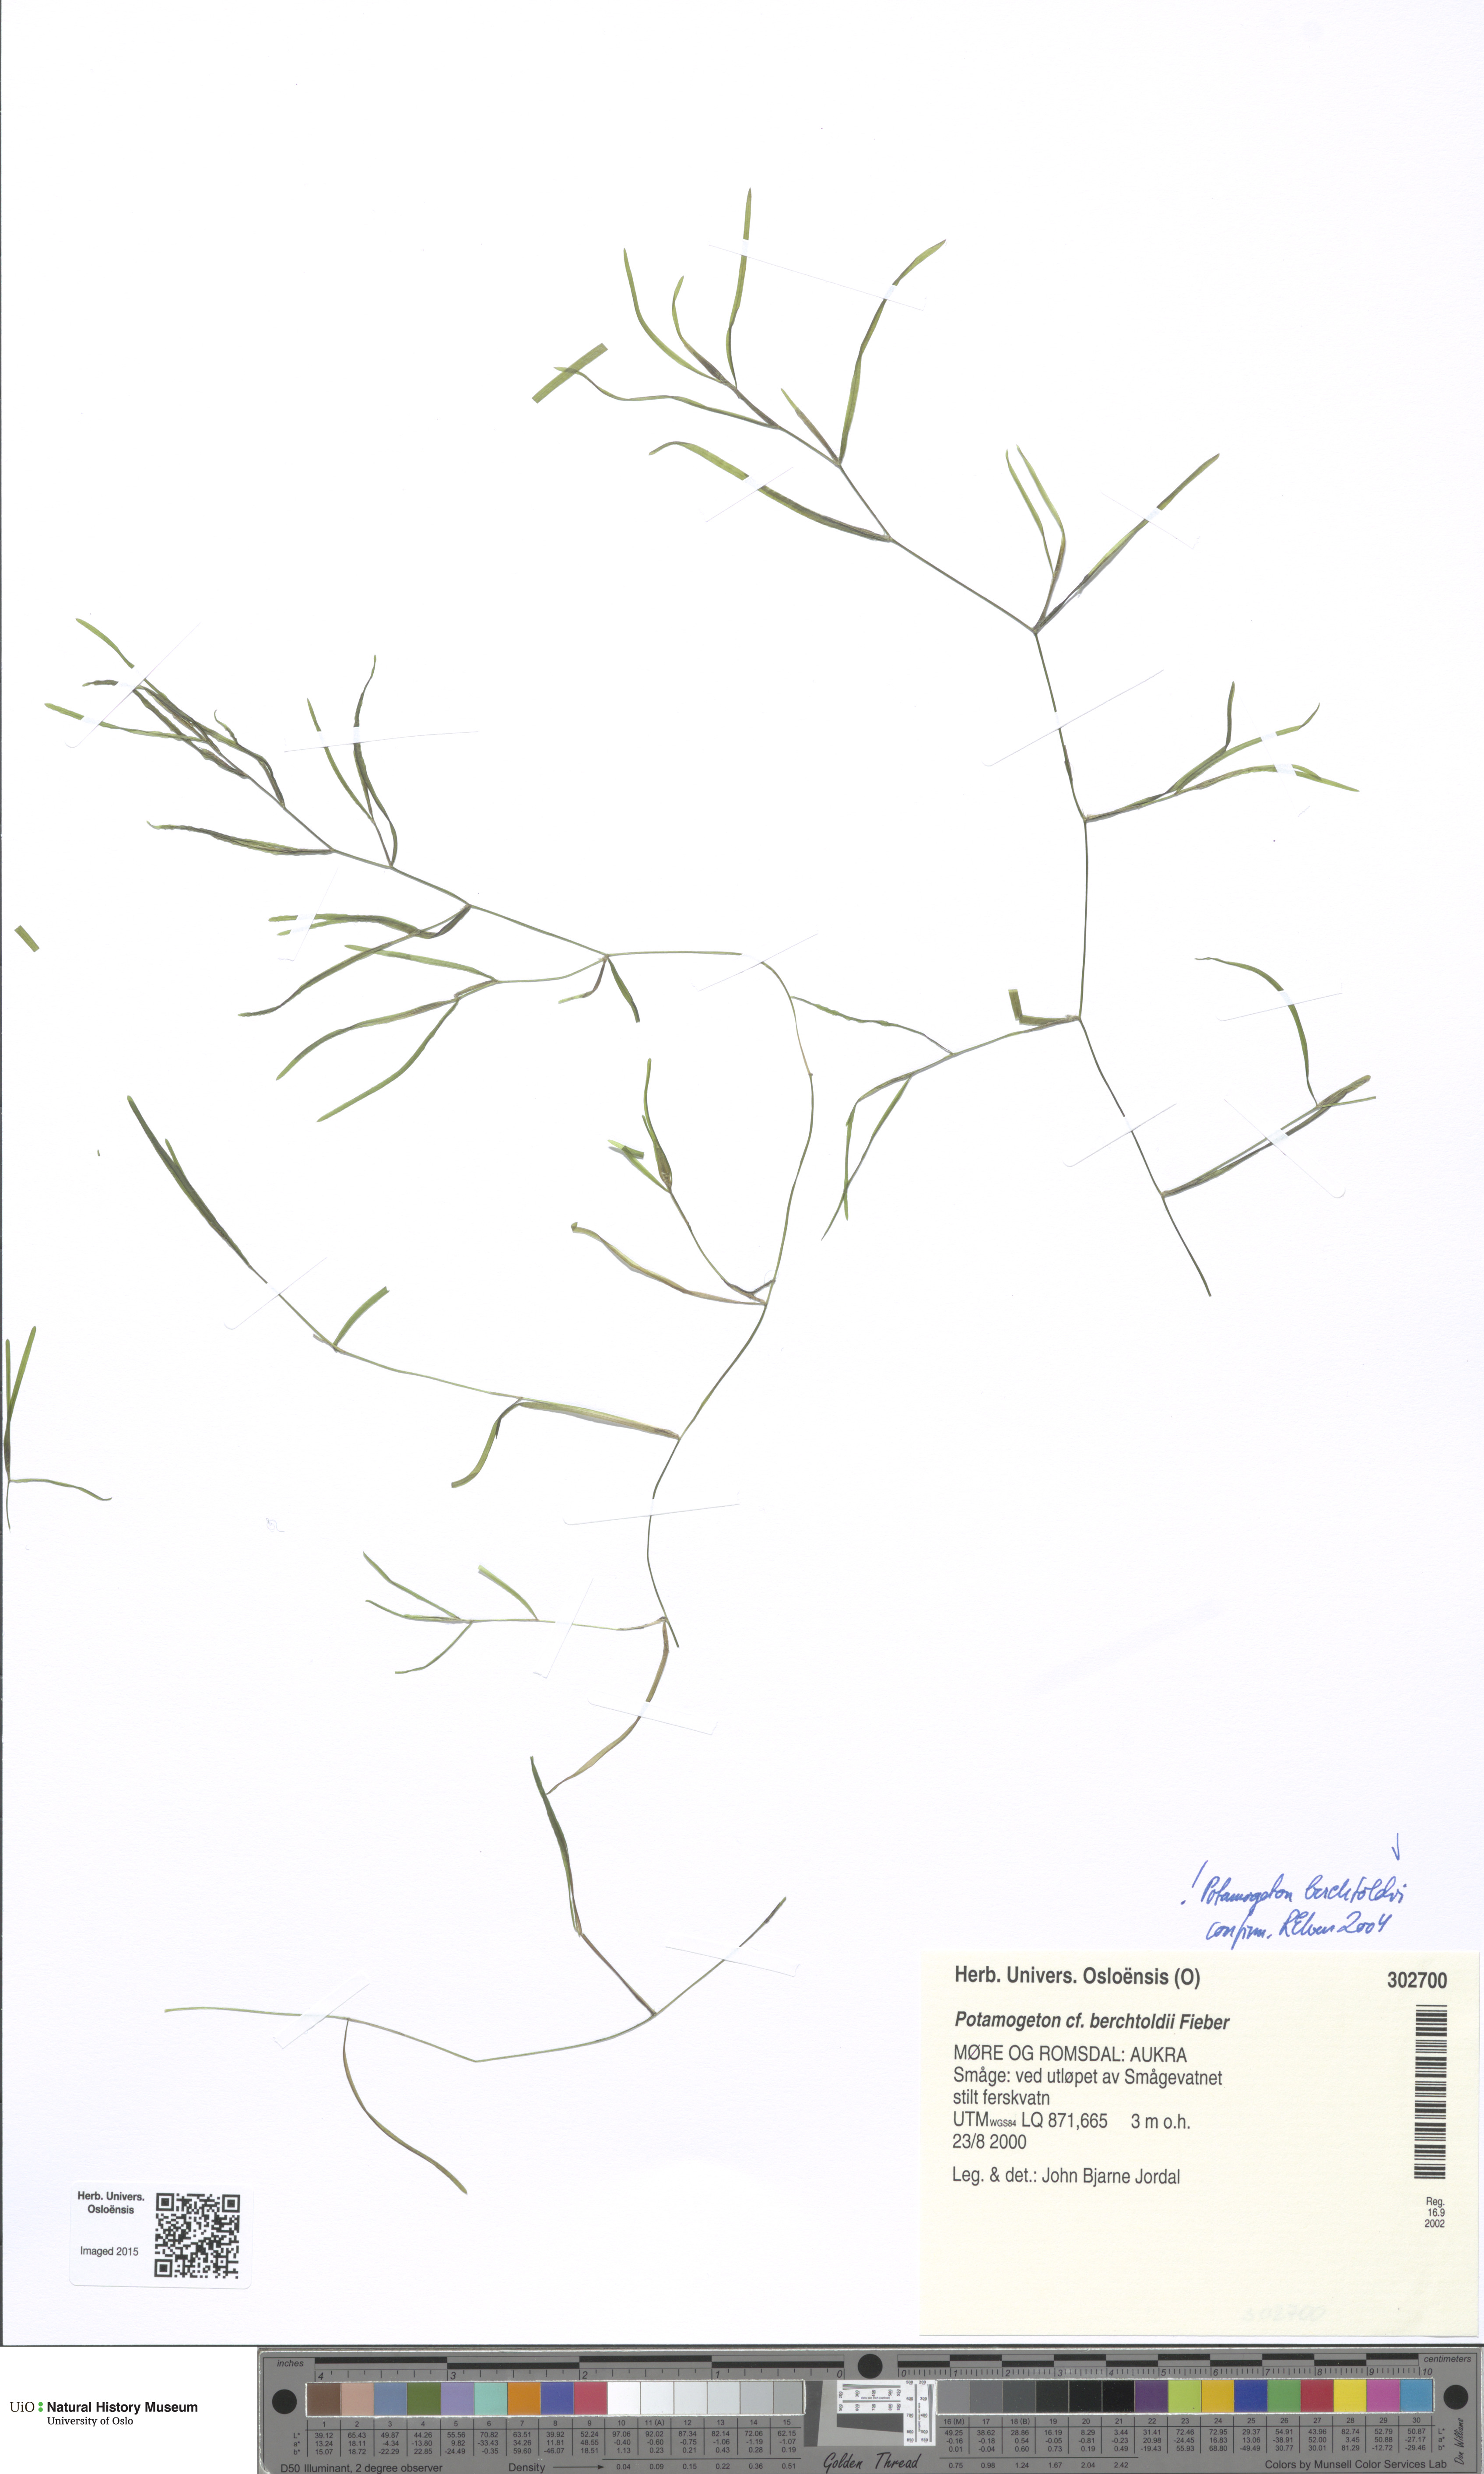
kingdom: Plantae
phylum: Tracheophyta
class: Liliopsida
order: Alismatales
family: Potamogetonaceae
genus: Potamogeton
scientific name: Potamogeton berchtoldii
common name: Small pondweed
